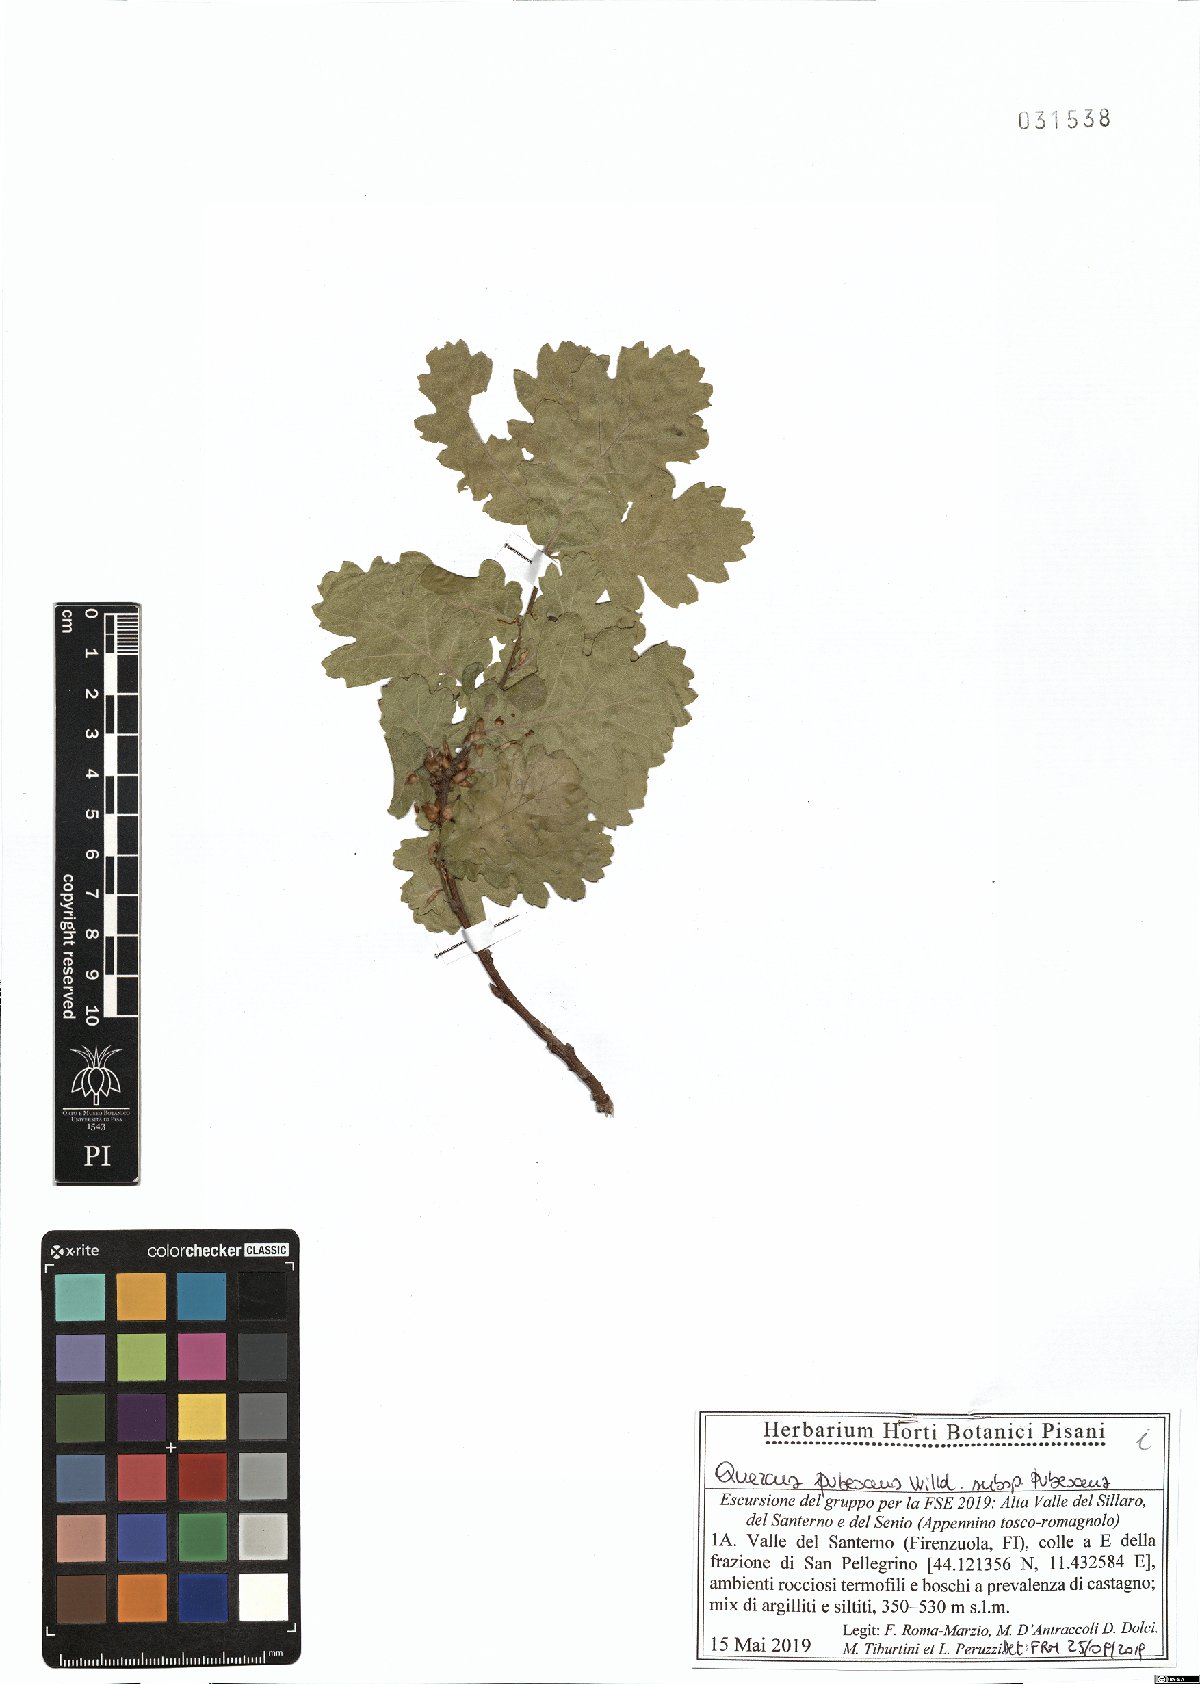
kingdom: Plantae
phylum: Tracheophyta
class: Magnoliopsida
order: Fagales
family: Fagaceae
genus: Quercus
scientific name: Quercus pubescens
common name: Downy oak
